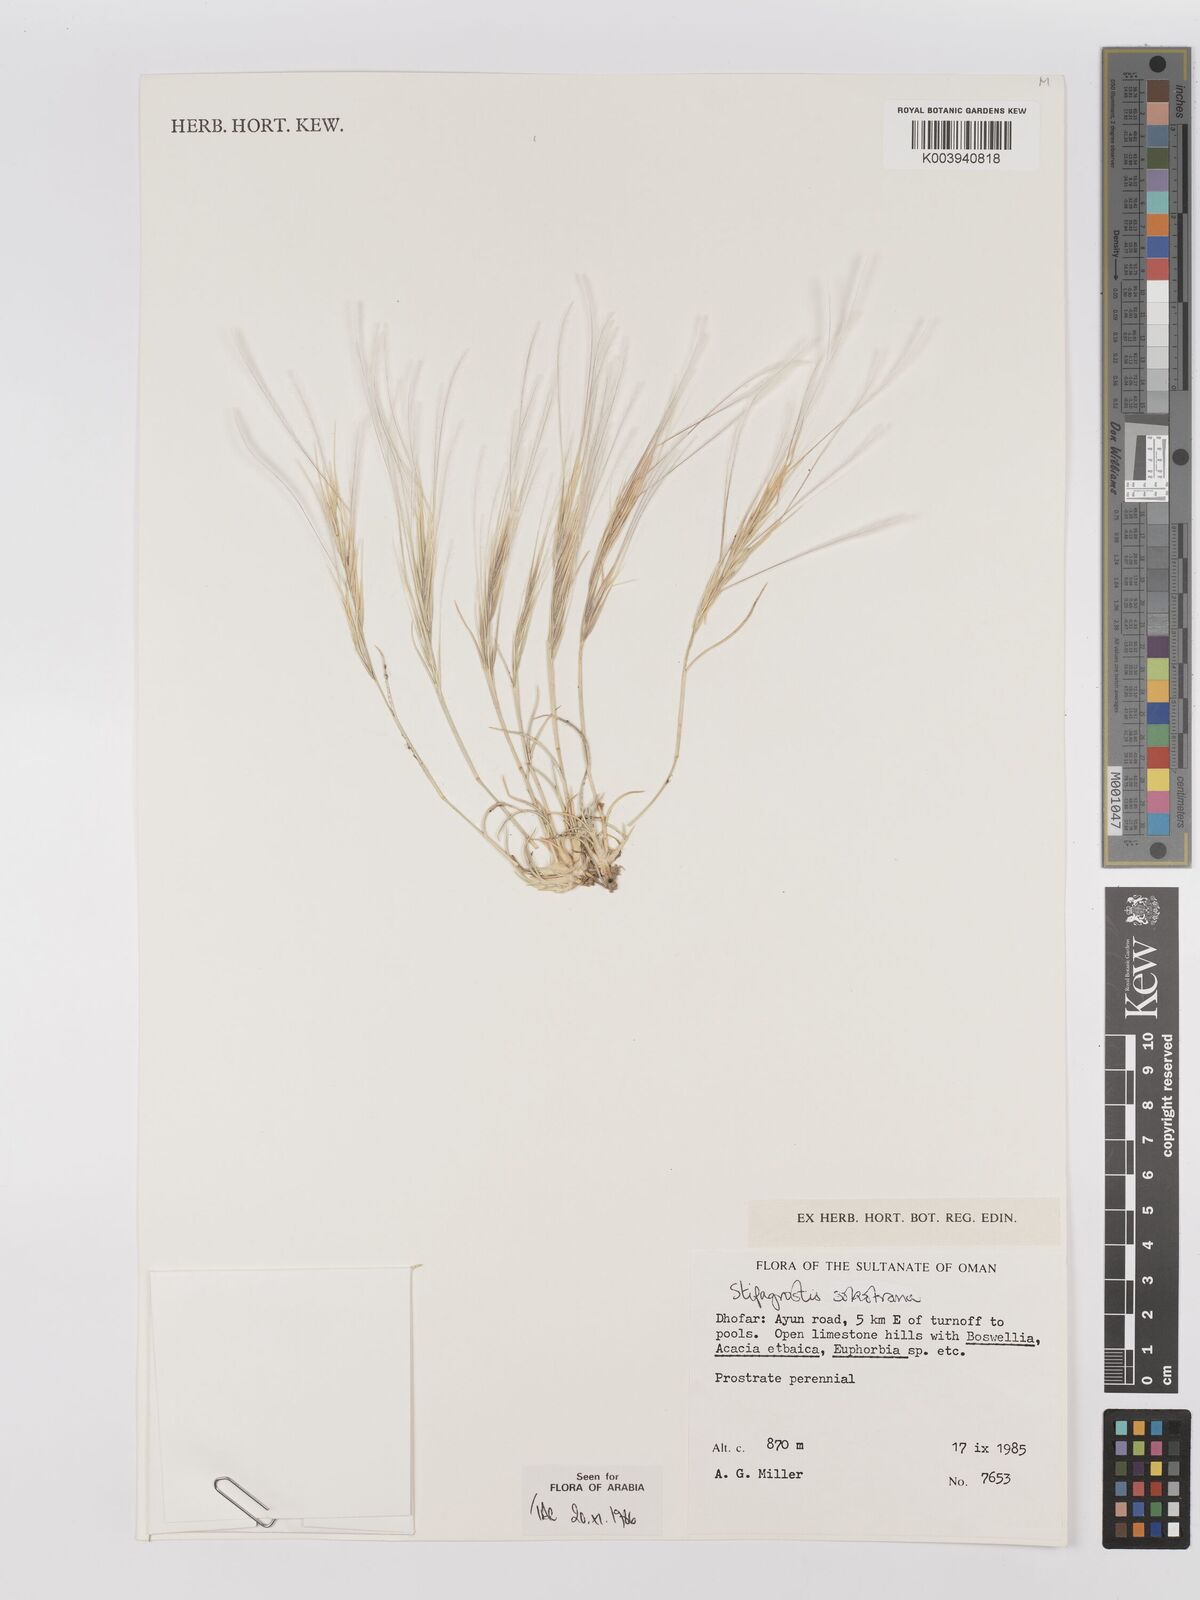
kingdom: Plantae
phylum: Tracheophyta
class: Liliopsida
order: Poales
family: Poaceae
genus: Stipagrostis
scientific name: Stipagrostis sokotrana
